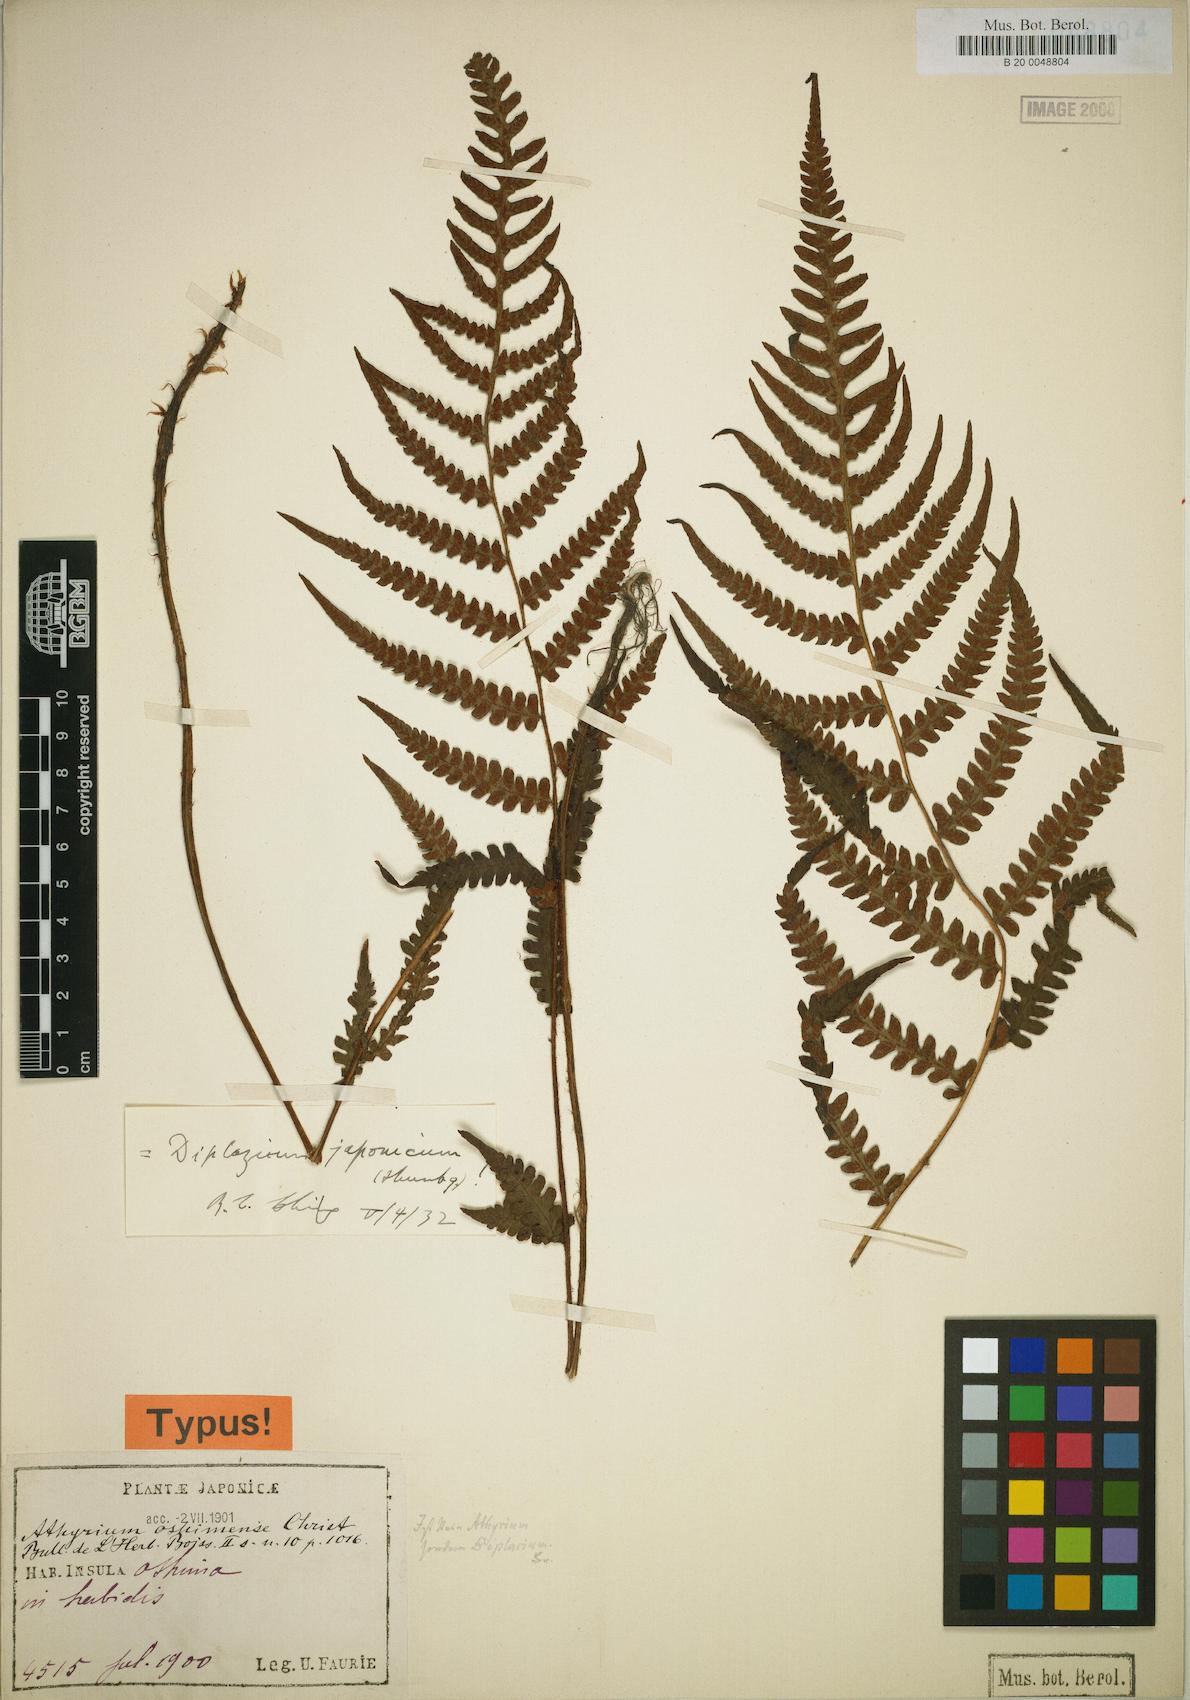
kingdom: Plantae
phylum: Tracheophyta
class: Polypodiopsida
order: Polypodiales
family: Athyriaceae
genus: Deparia
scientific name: Deparia japonica
